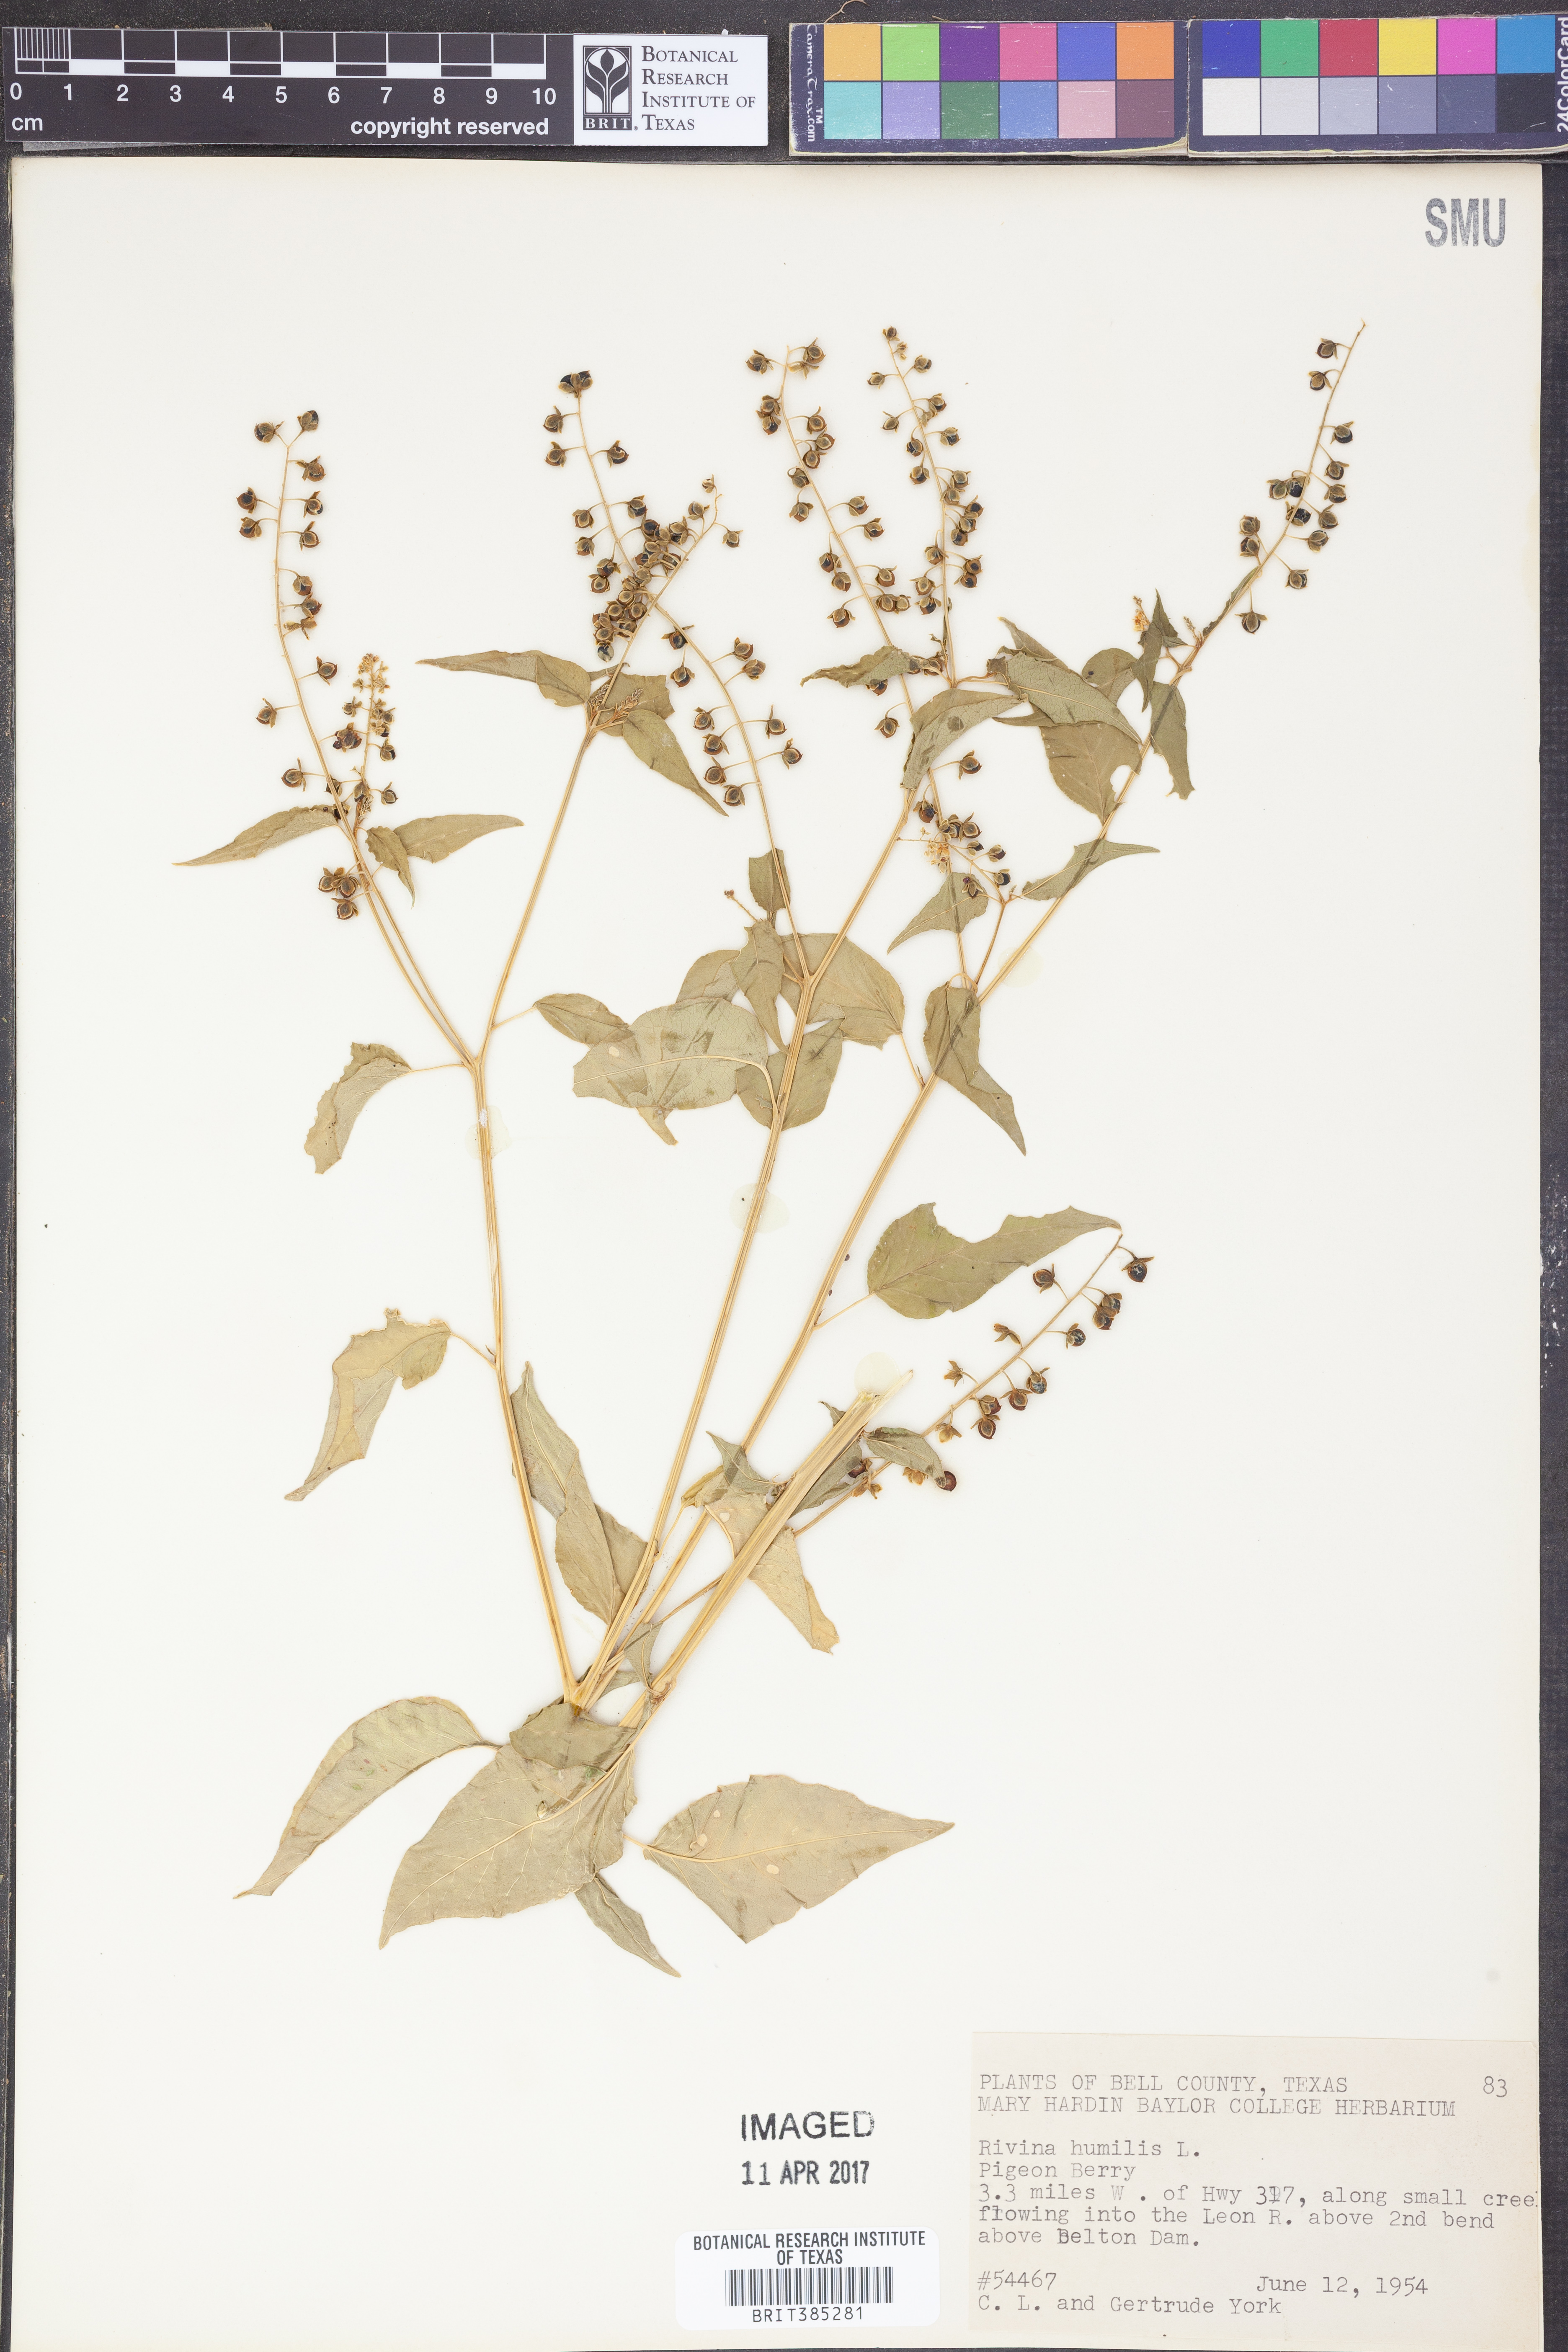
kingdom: Plantae
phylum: Tracheophyta
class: Magnoliopsida
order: Caryophyllales
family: Phytolaccaceae
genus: Rivina
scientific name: Rivina humilis
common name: Rougeplant
